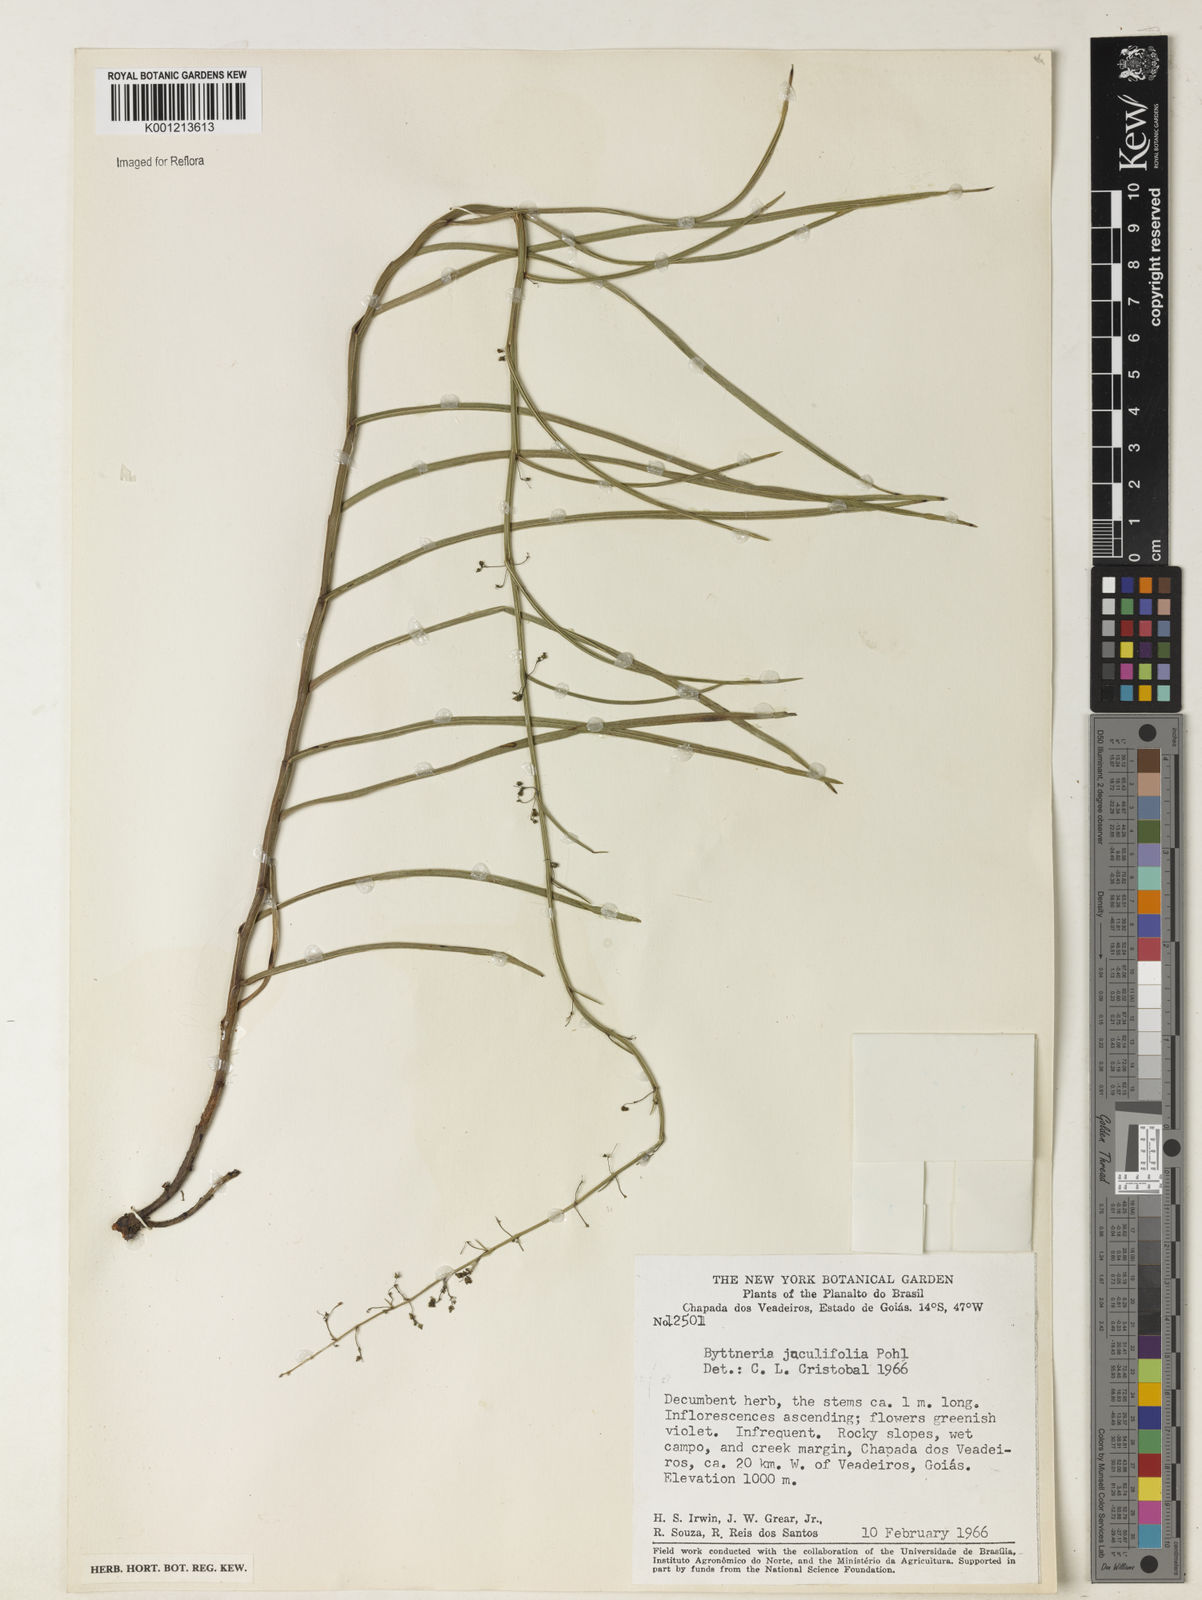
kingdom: Plantae
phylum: Tracheophyta
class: Magnoliopsida
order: Malvales
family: Malvaceae
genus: Byttneria
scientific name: Byttneria jaculifolia
